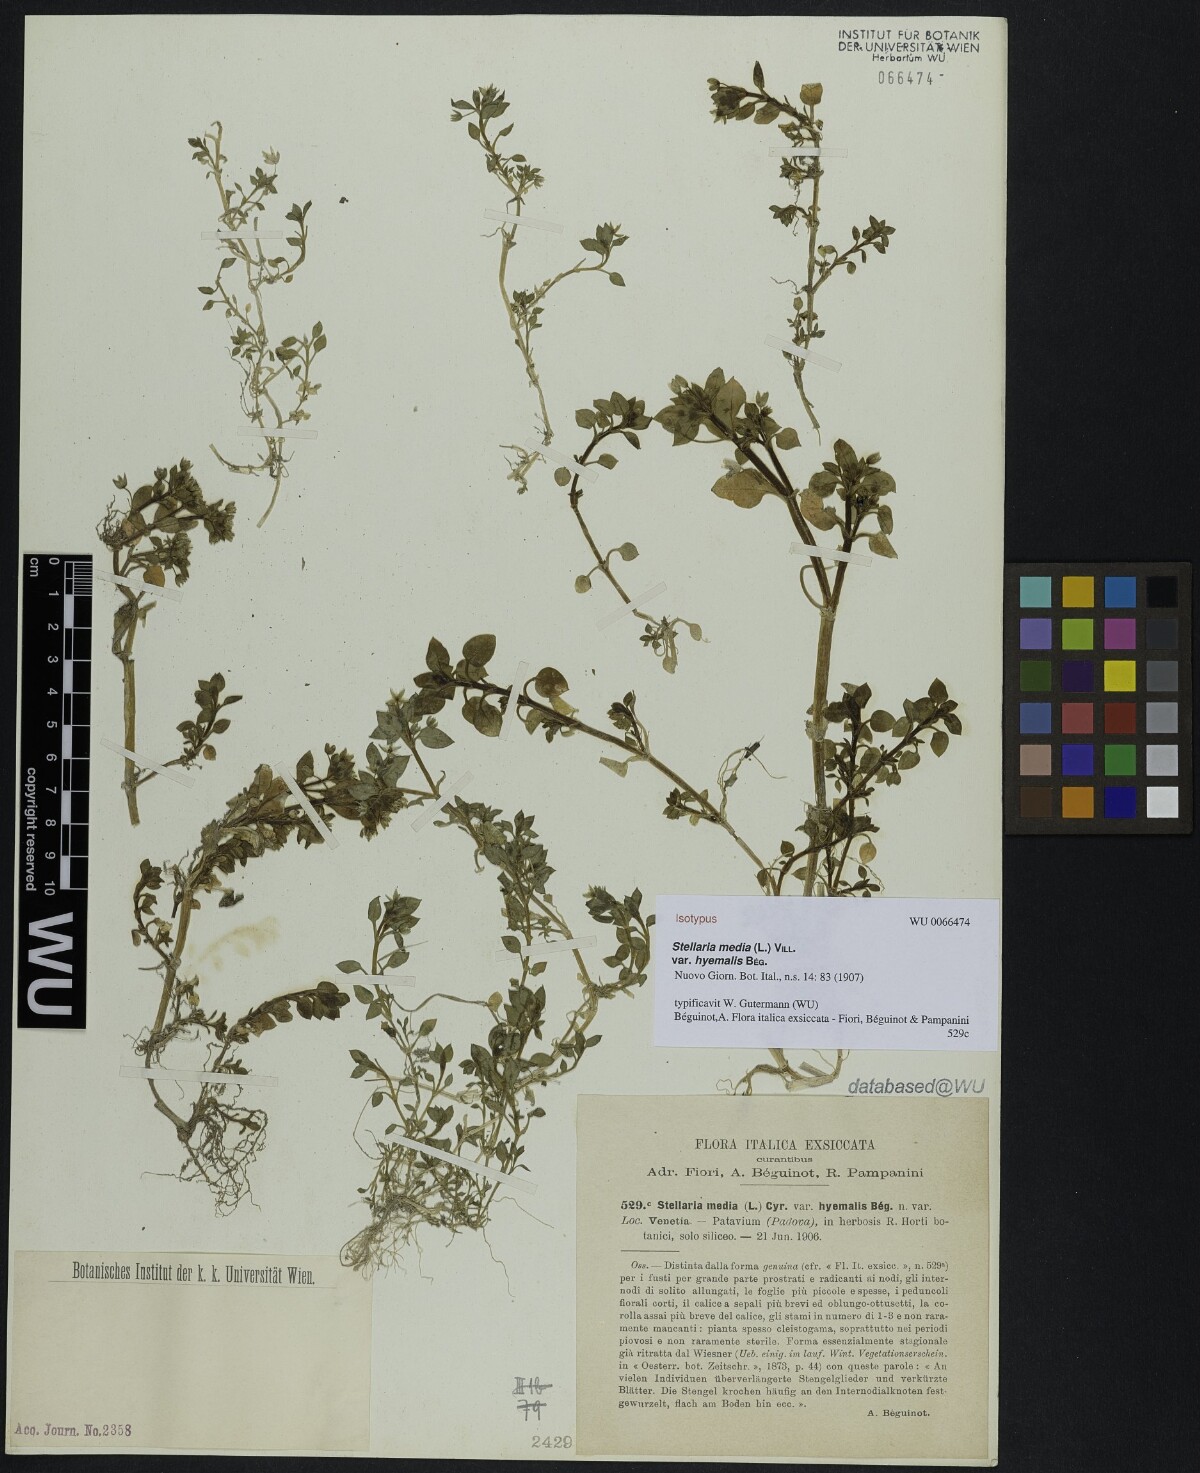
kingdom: Plantae
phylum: Tracheophyta
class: Magnoliopsida
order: Caryophyllales
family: Caryophyllaceae
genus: Stellaria
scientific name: Stellaria media
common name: Common chickweed
